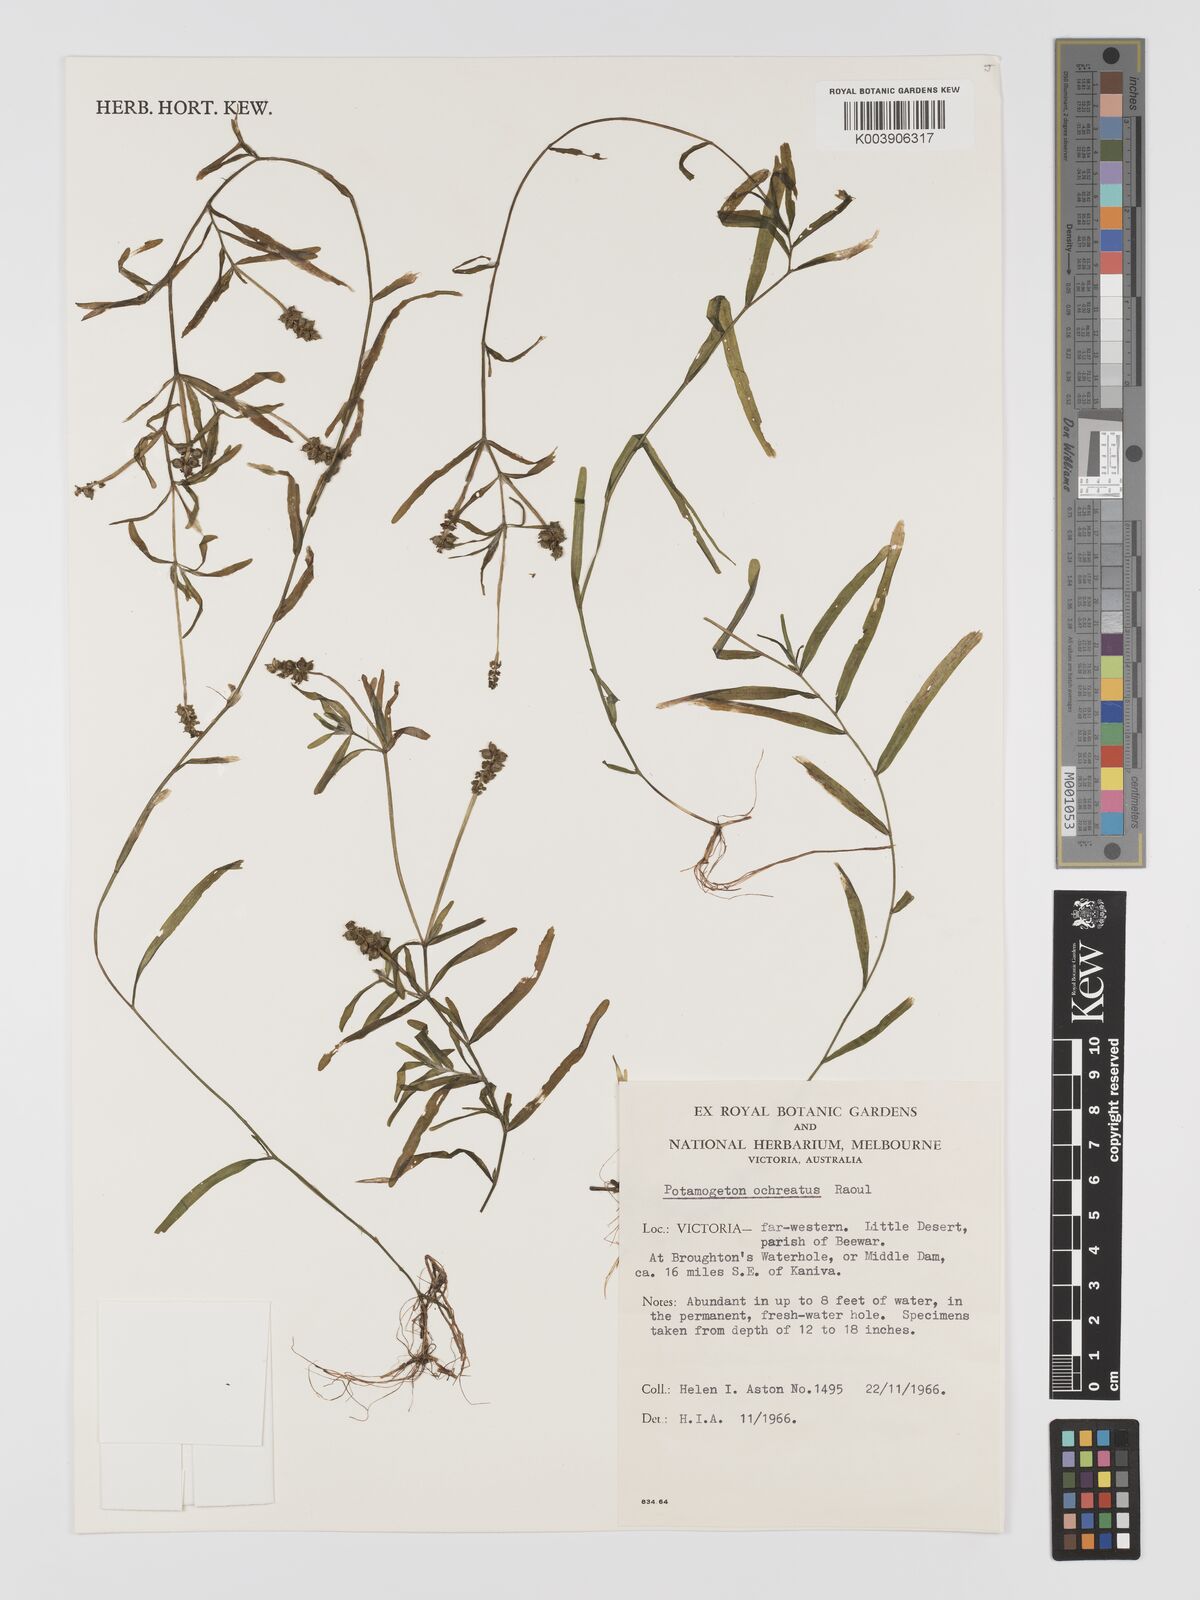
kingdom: Plantae
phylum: Tracheophyta
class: Liliopsida
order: Alismatales
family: Potamogetonaceae
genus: Potamogeton
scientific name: Potamogeton ochreatus
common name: Blunt pondweed
